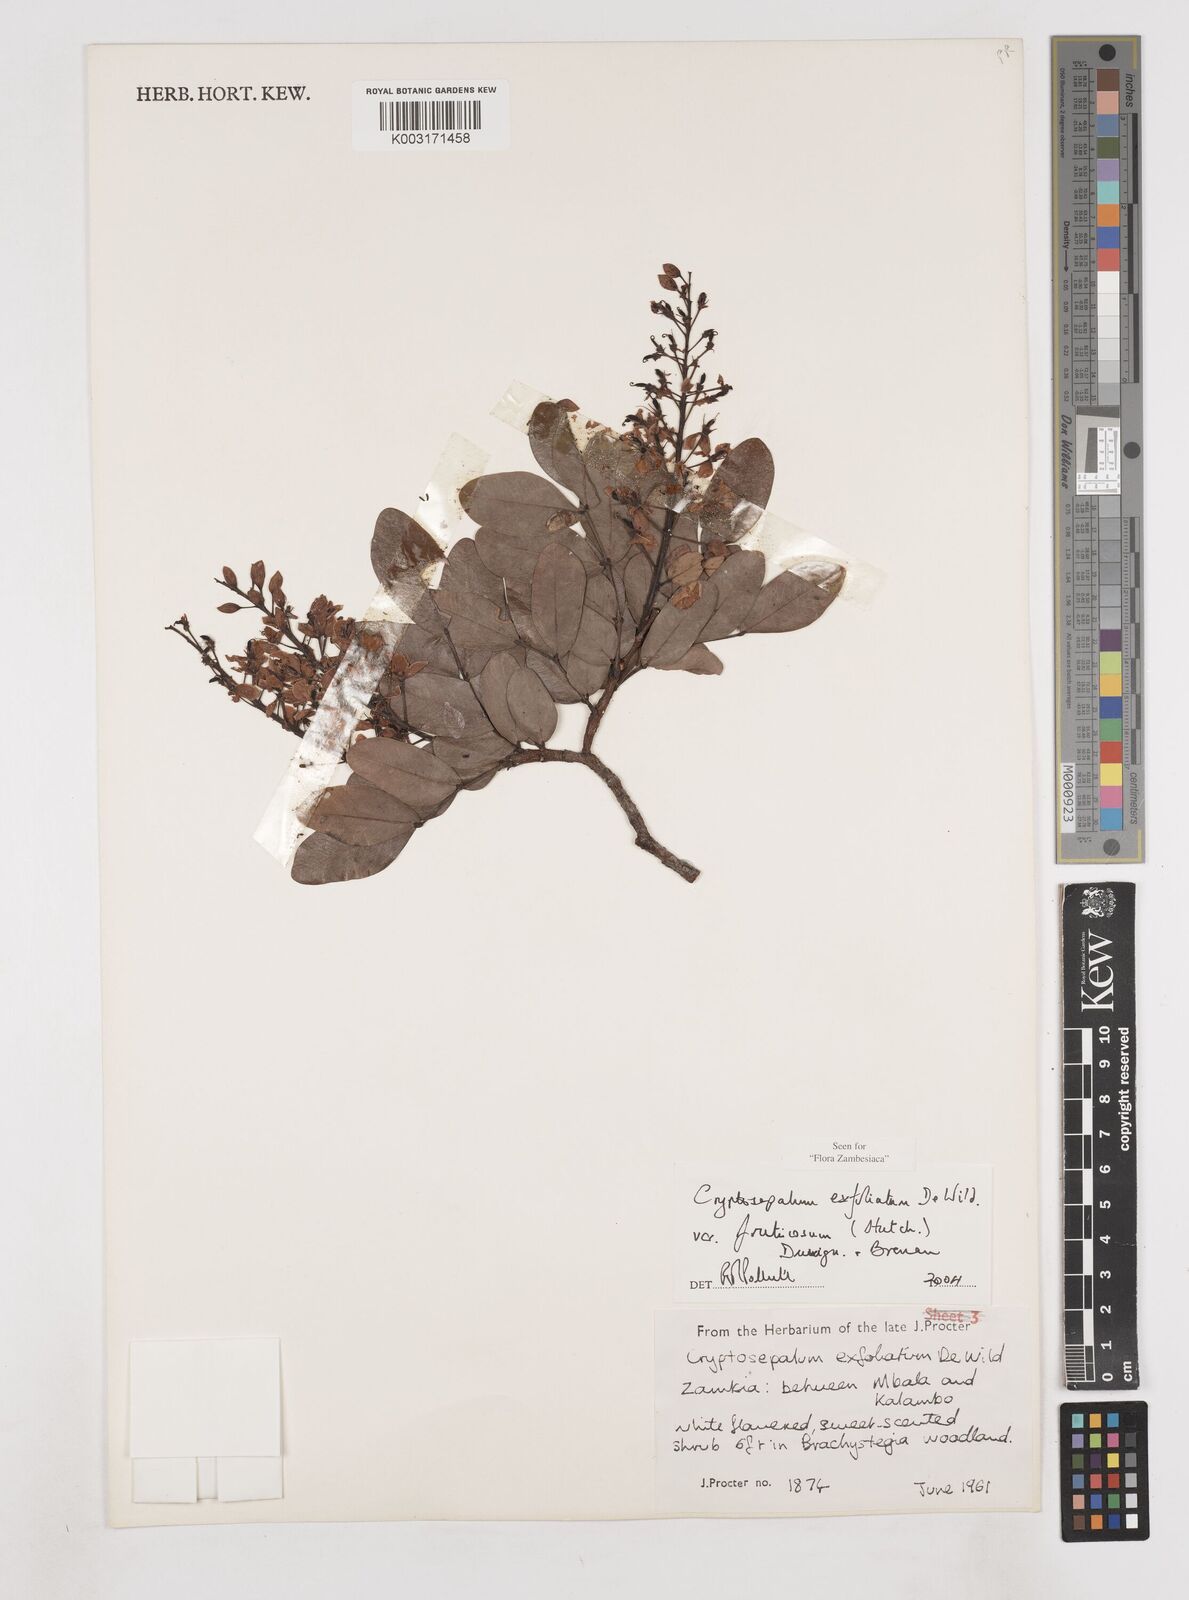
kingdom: Plantae
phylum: Tracheophyta
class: Magnoliopsida
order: Fabales
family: Fabaceae
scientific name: Fabaceae
